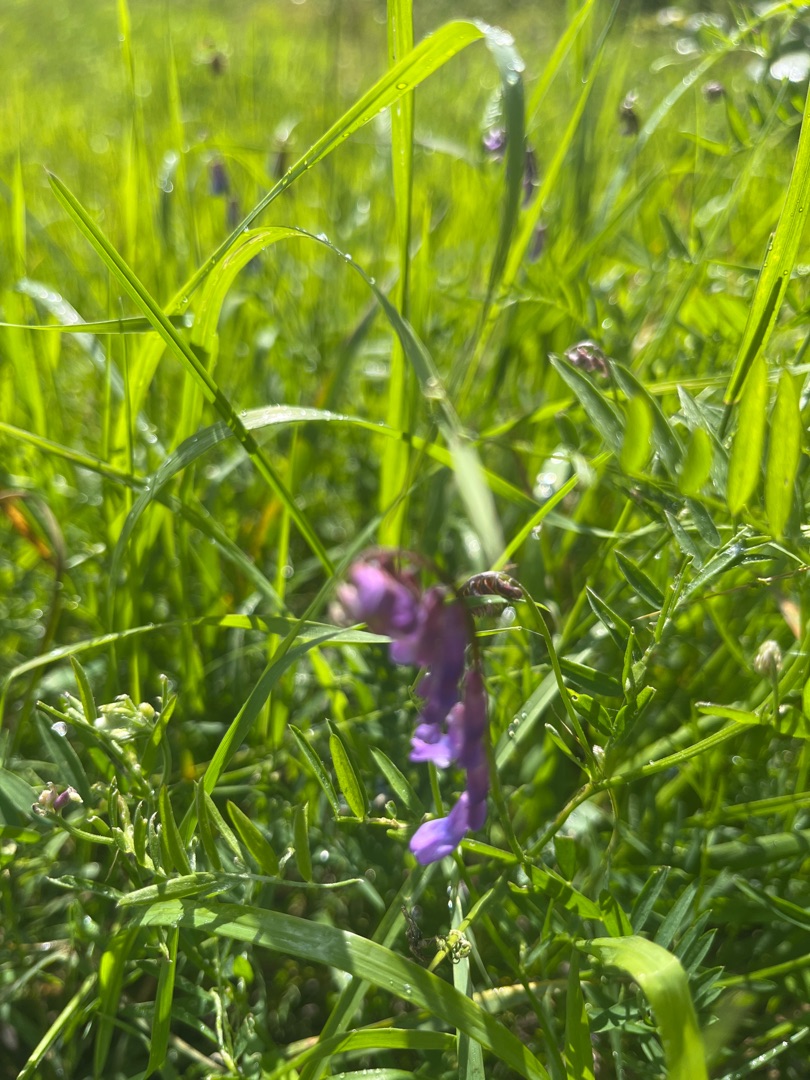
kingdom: Plantae
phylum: Tracheophyta
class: Magnoliopsida
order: Fabales
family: Fabaceae
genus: Vicia
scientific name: Vicia cracca
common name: Muse-vikke
